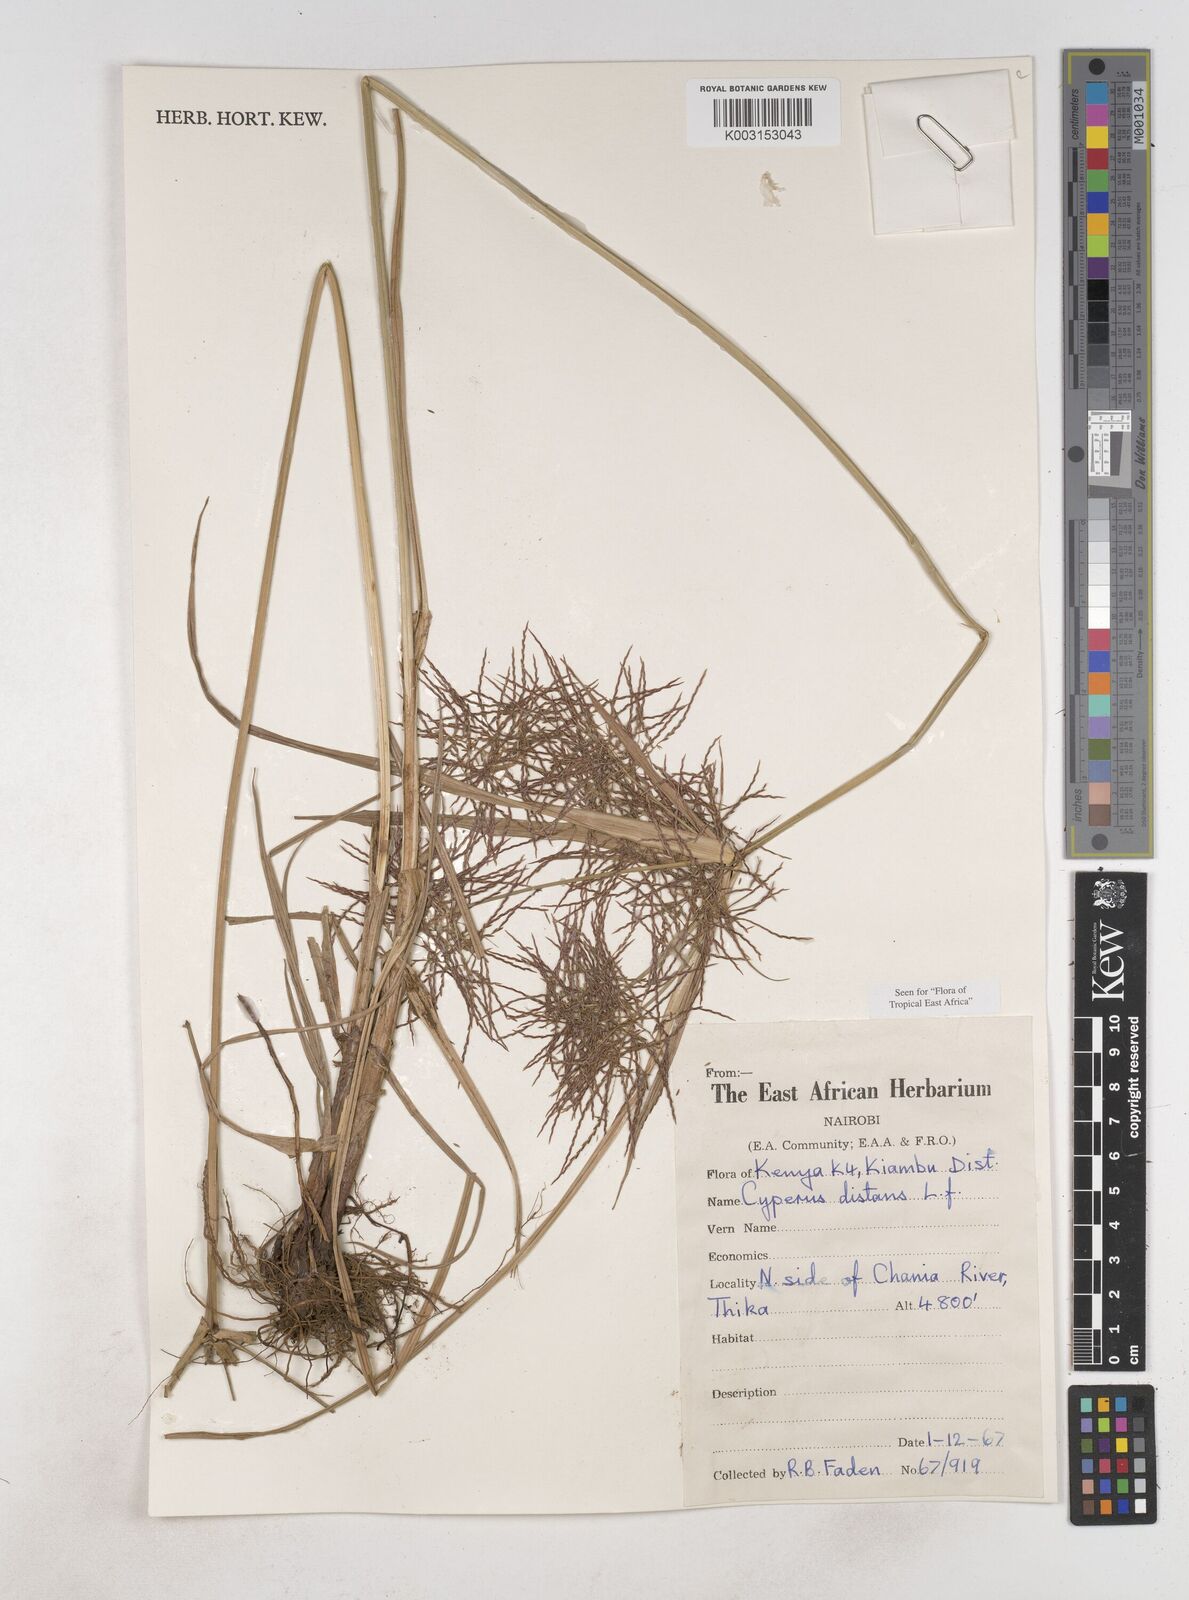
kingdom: Plantae
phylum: Tracheophyta
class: Liliopsida
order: Poales
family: Cyperaceae
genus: Cyperus
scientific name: Cyperus distans
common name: Slender cyperus
